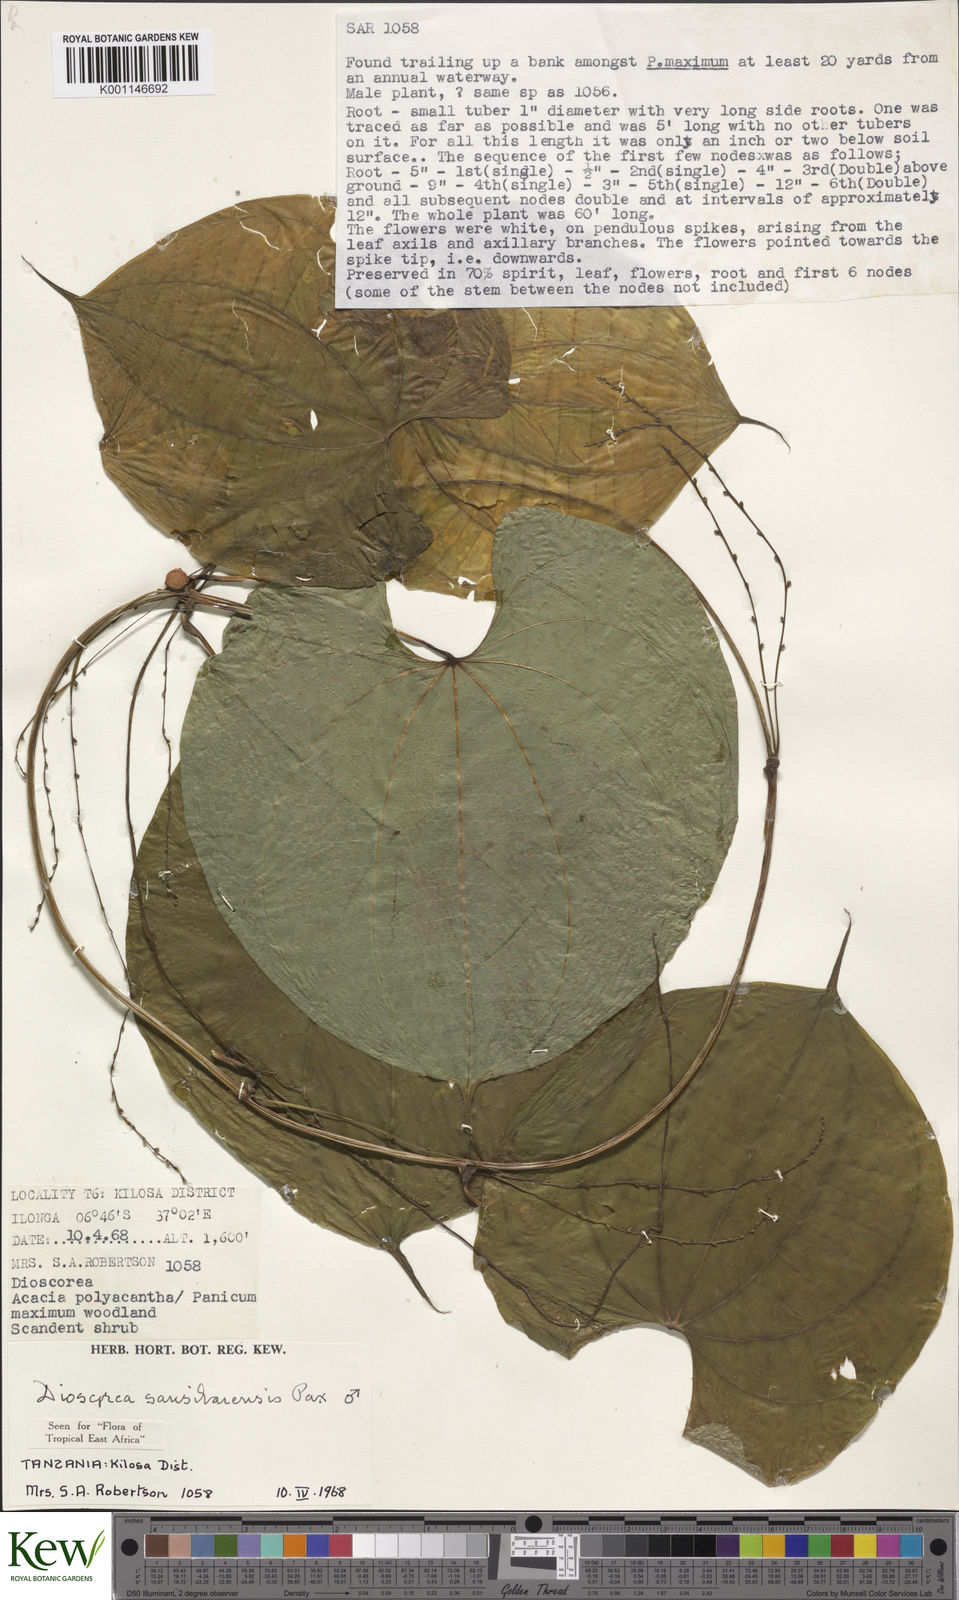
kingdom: Plantae
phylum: Tracheophyta
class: Liliopsida
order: Dioscoreales
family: Dioscoreaceae
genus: Dioscorea
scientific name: Dioscorea sansibarensis
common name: Zanzibar yam
